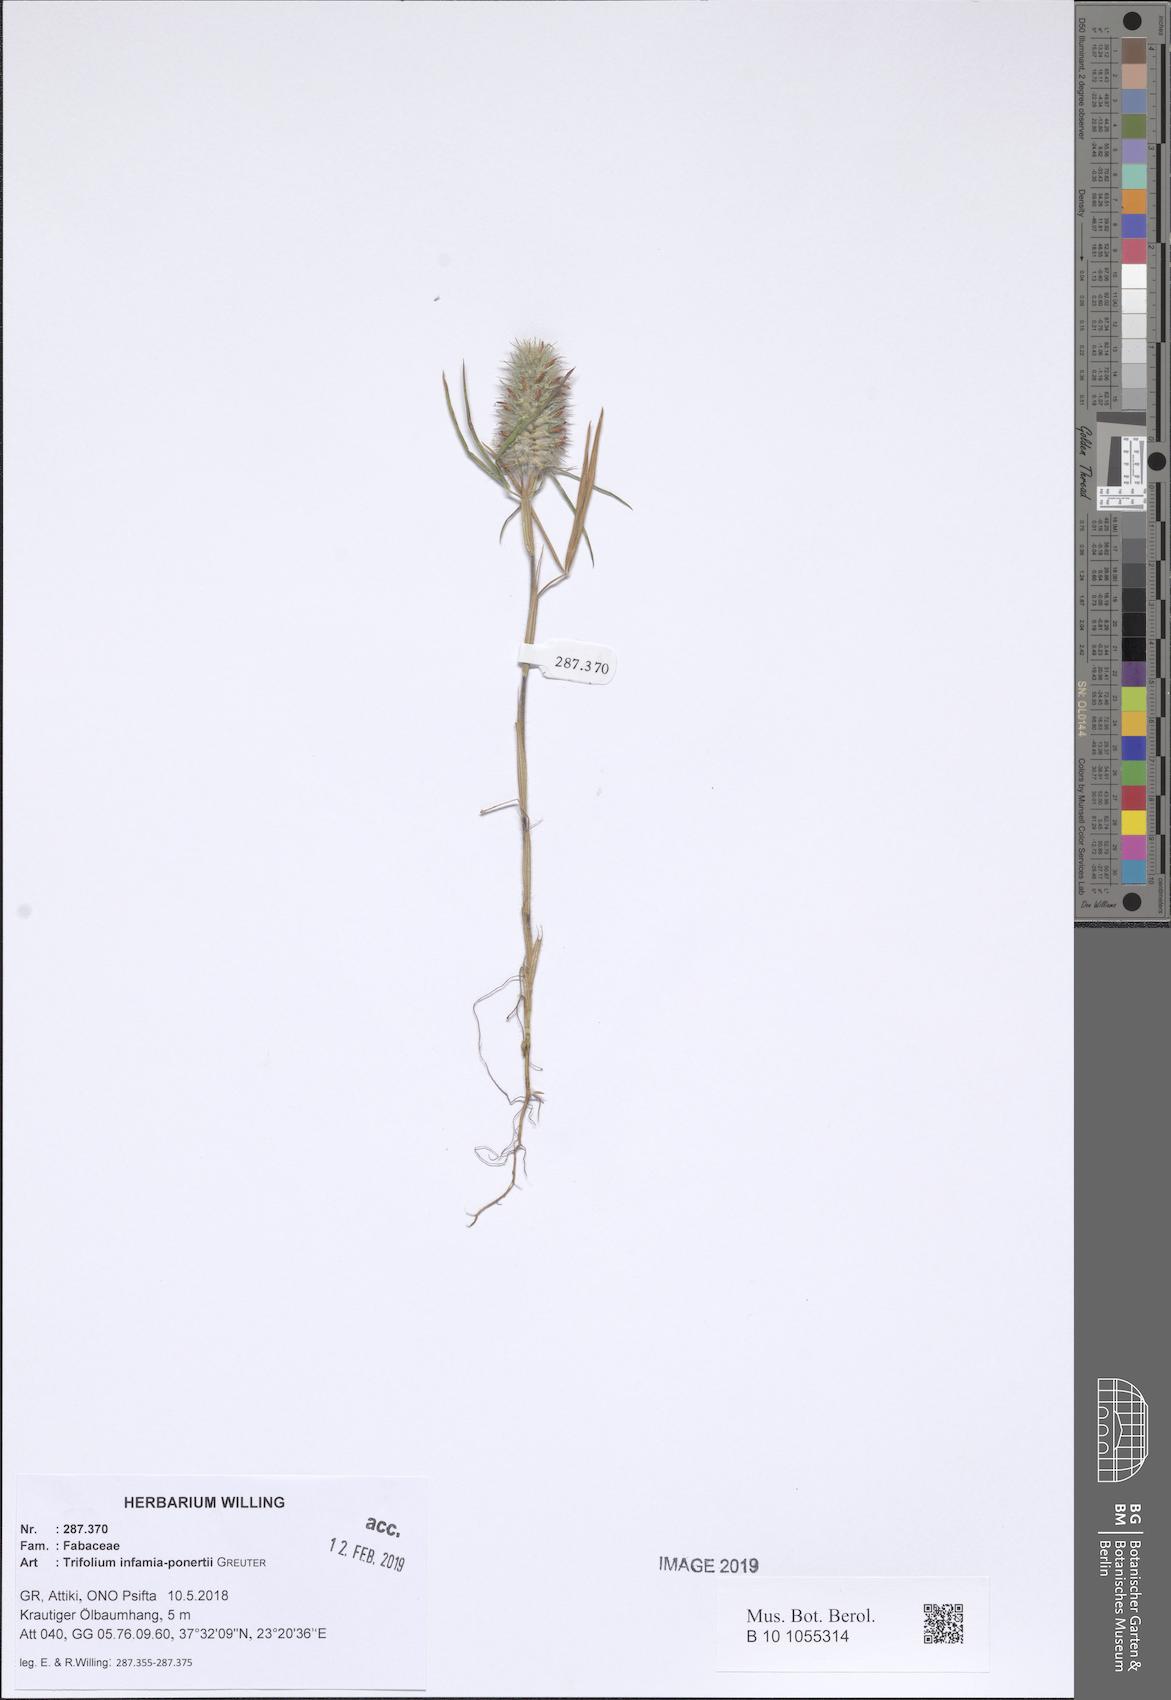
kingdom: Plantae
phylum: Tracheophyta
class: Magnoliopsida
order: Fabales
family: Fabaceae
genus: Trifolium
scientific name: Trifolium infamia-ponertii
